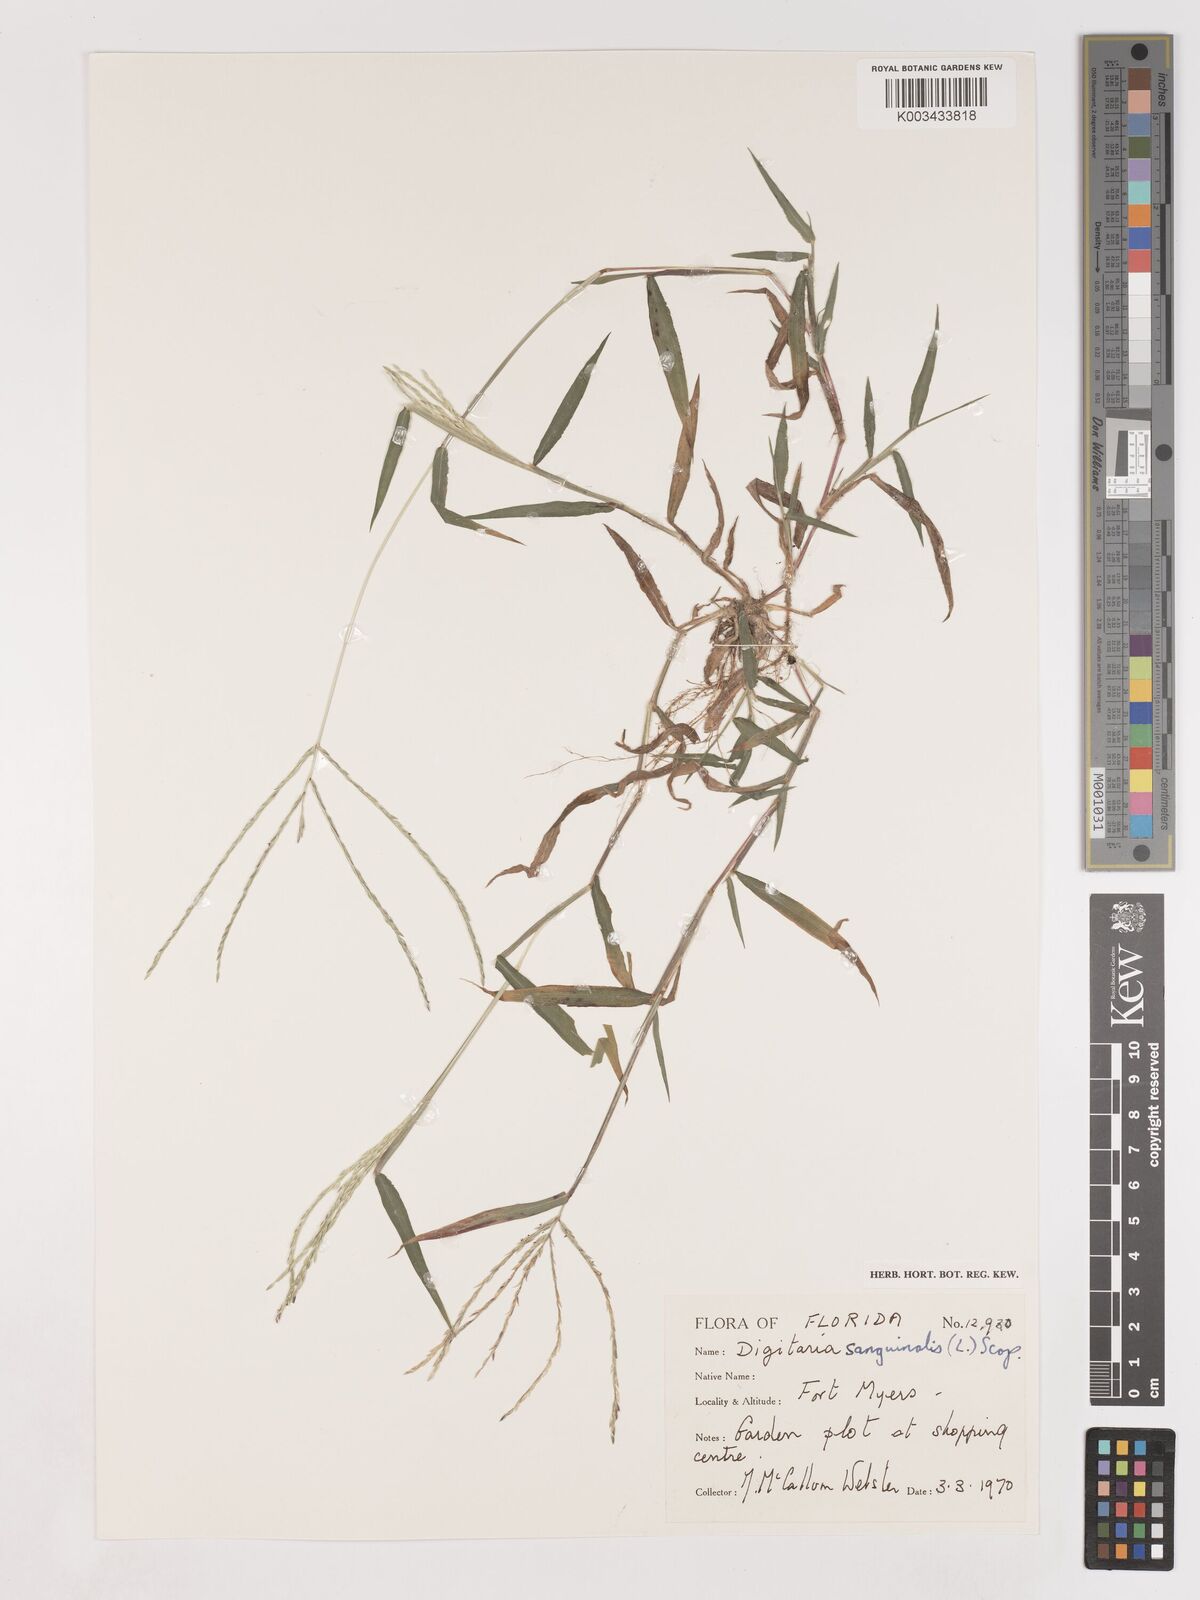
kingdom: Plantae
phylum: Tracheophyta
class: Liliopsida
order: Poales
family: Poaceae
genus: Digitaria
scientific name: Digitaria ciliaris
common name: Tropical finger-grass
